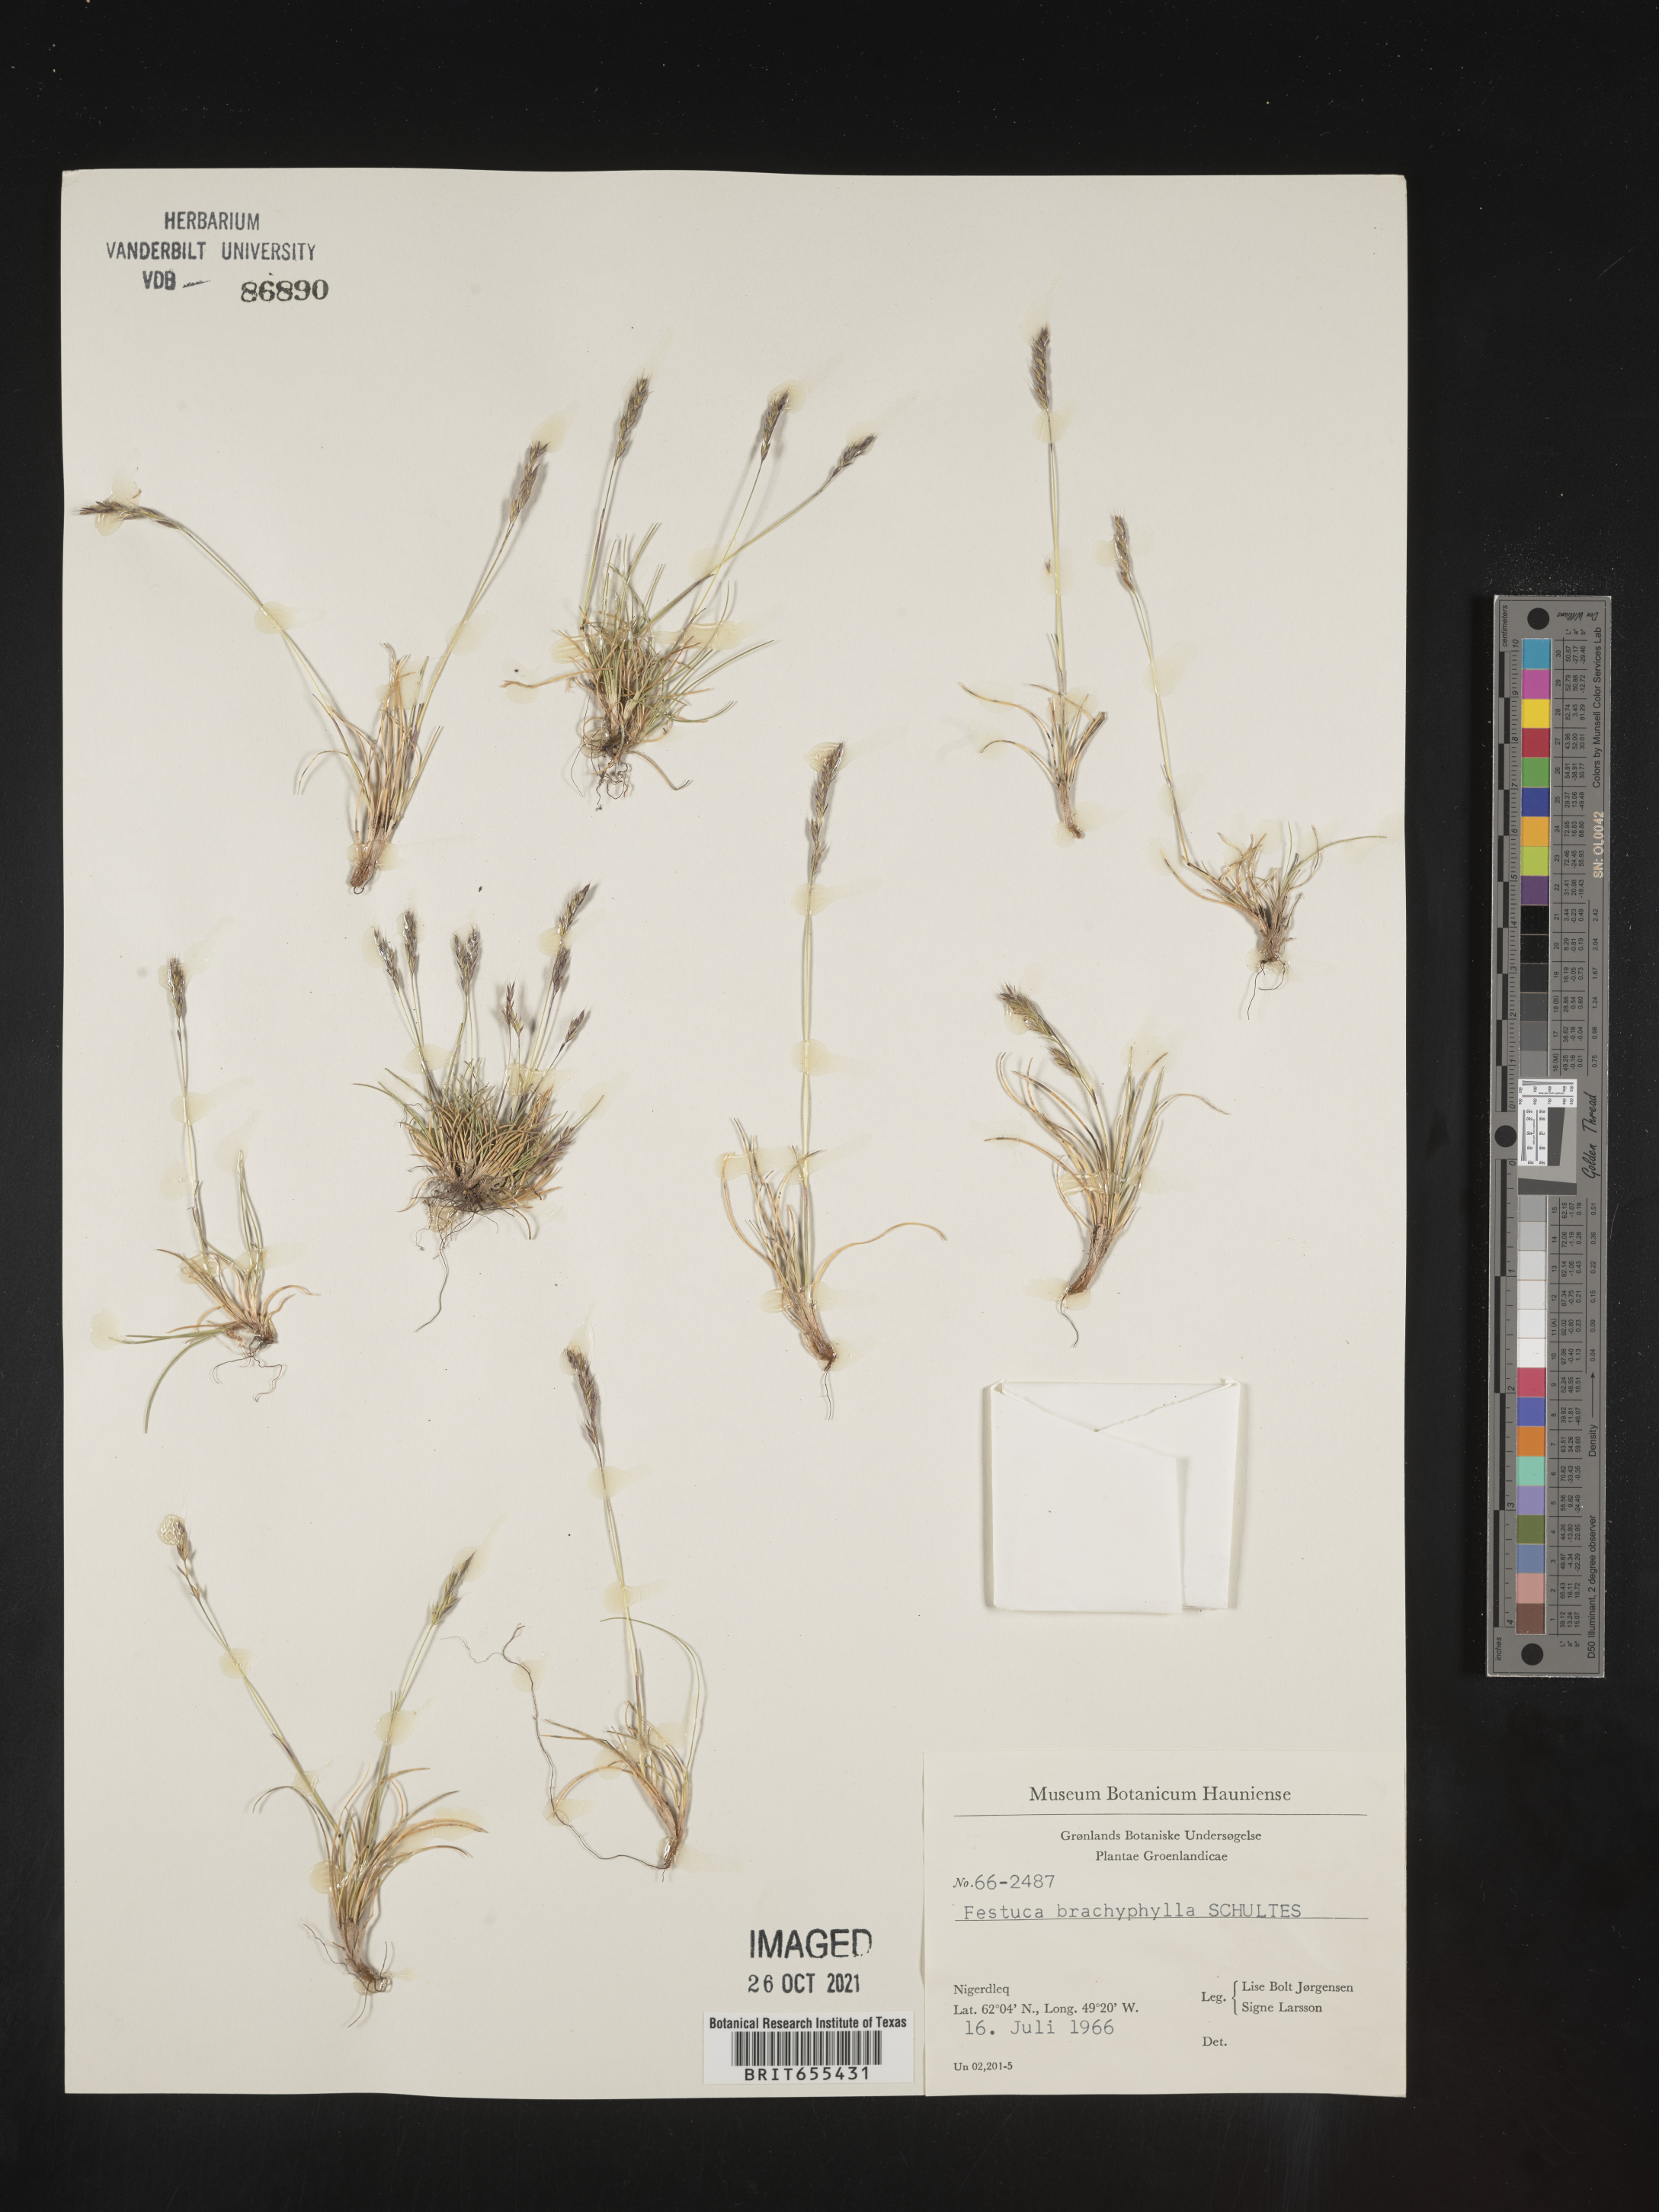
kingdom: Plantae
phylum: Tracheophyta
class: Liliopsida
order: Poales
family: Poaceae
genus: Festuca
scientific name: Festuca
